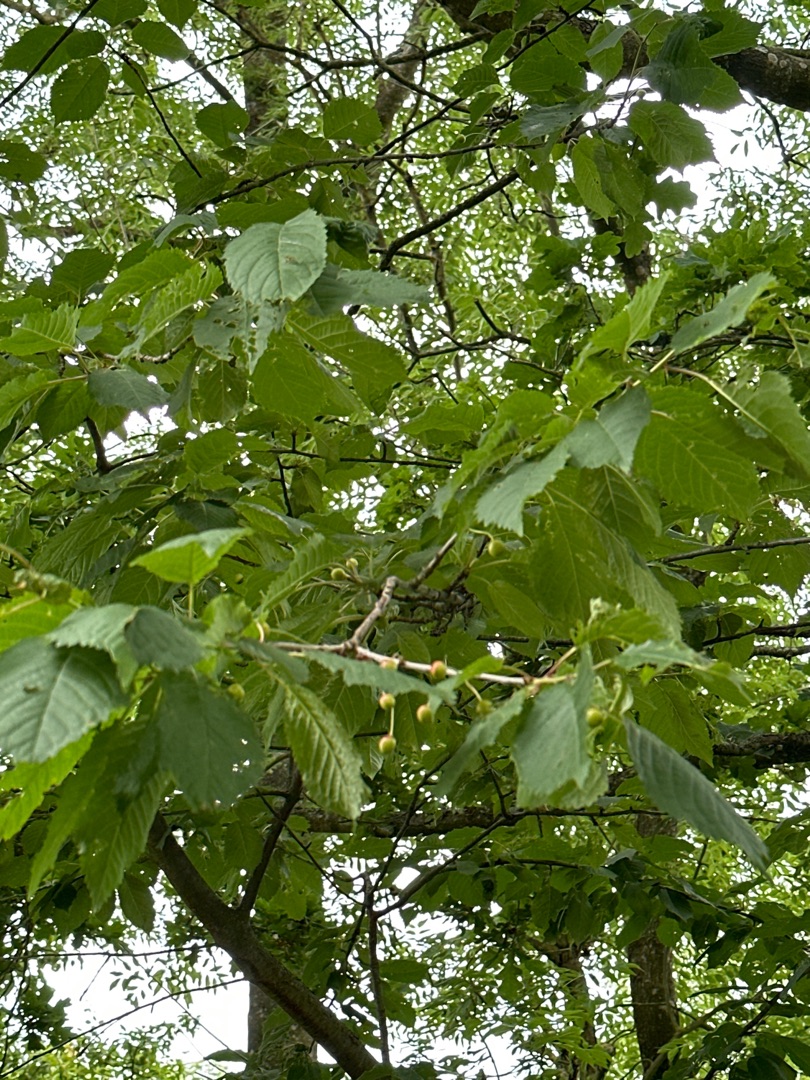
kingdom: Plantae
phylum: Tracheophyta
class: Magnoliopsida
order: Rosales
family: Rosaceae
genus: Prunus
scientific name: Prunus avium
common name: Fugle-kirsebær
